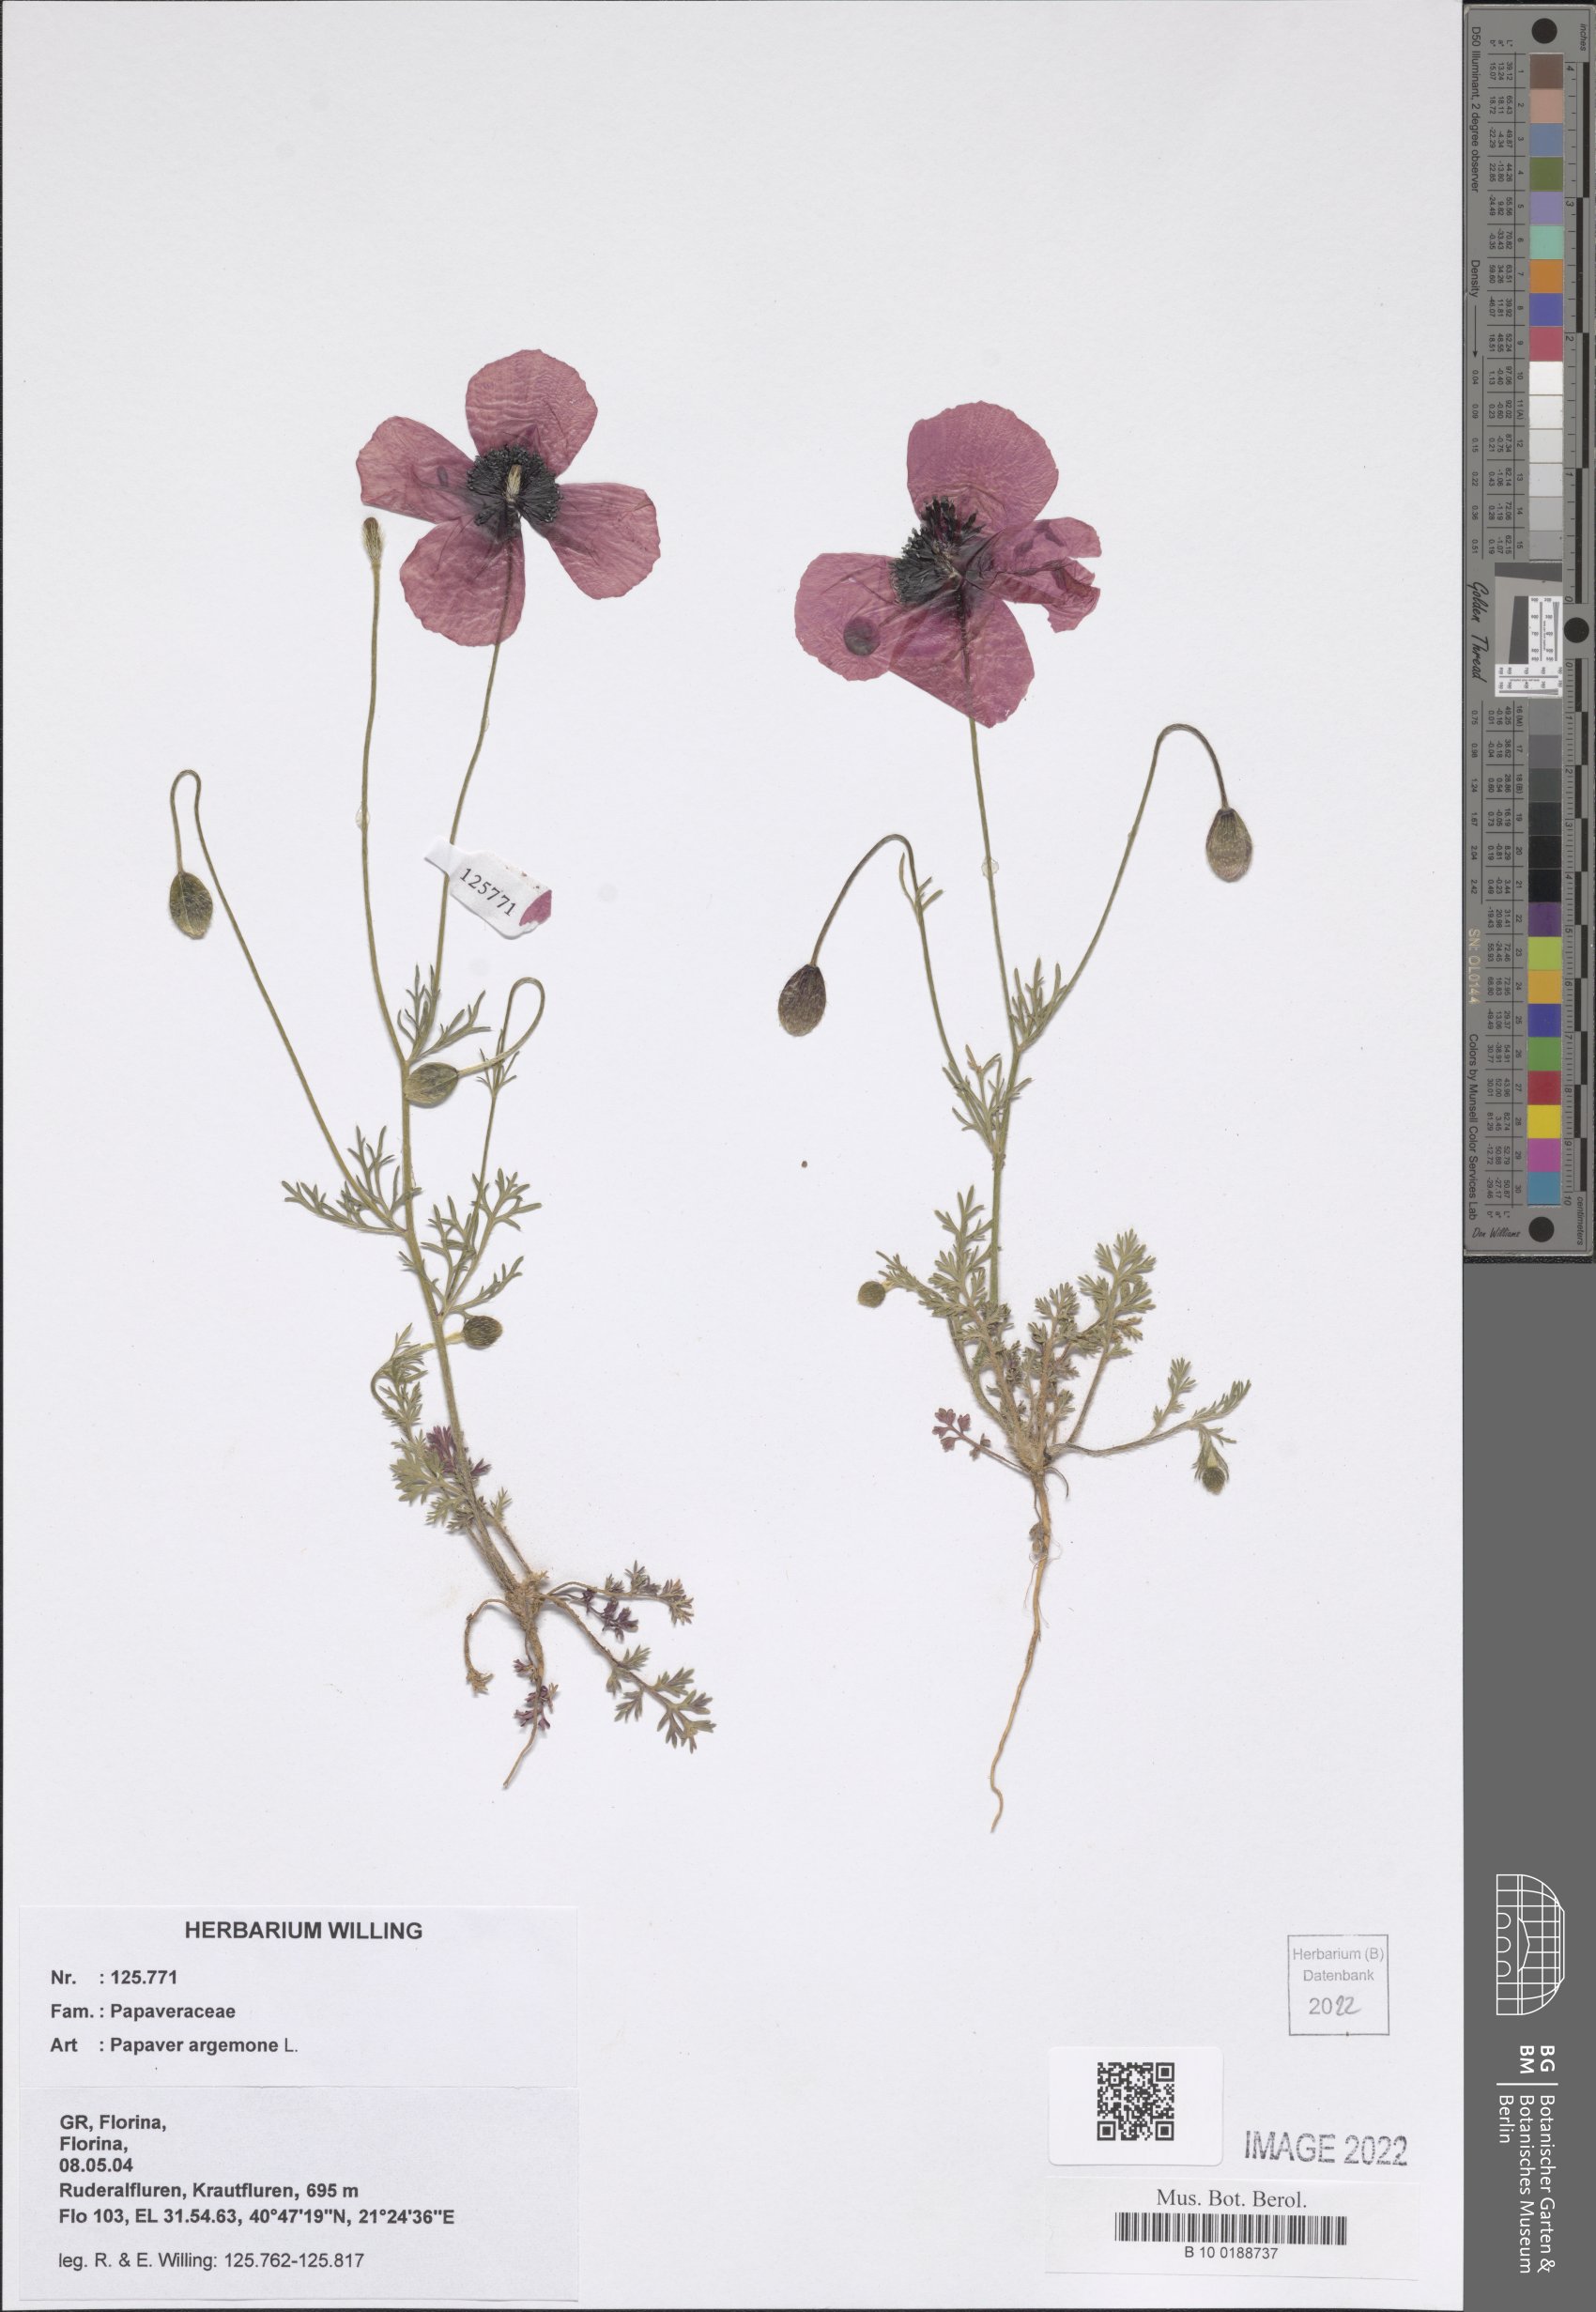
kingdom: Plantae
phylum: Tracheophyta
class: Magnoliopsida
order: Ranunculales
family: Papaveraceae
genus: Roemeria
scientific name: Roemeria argemone
